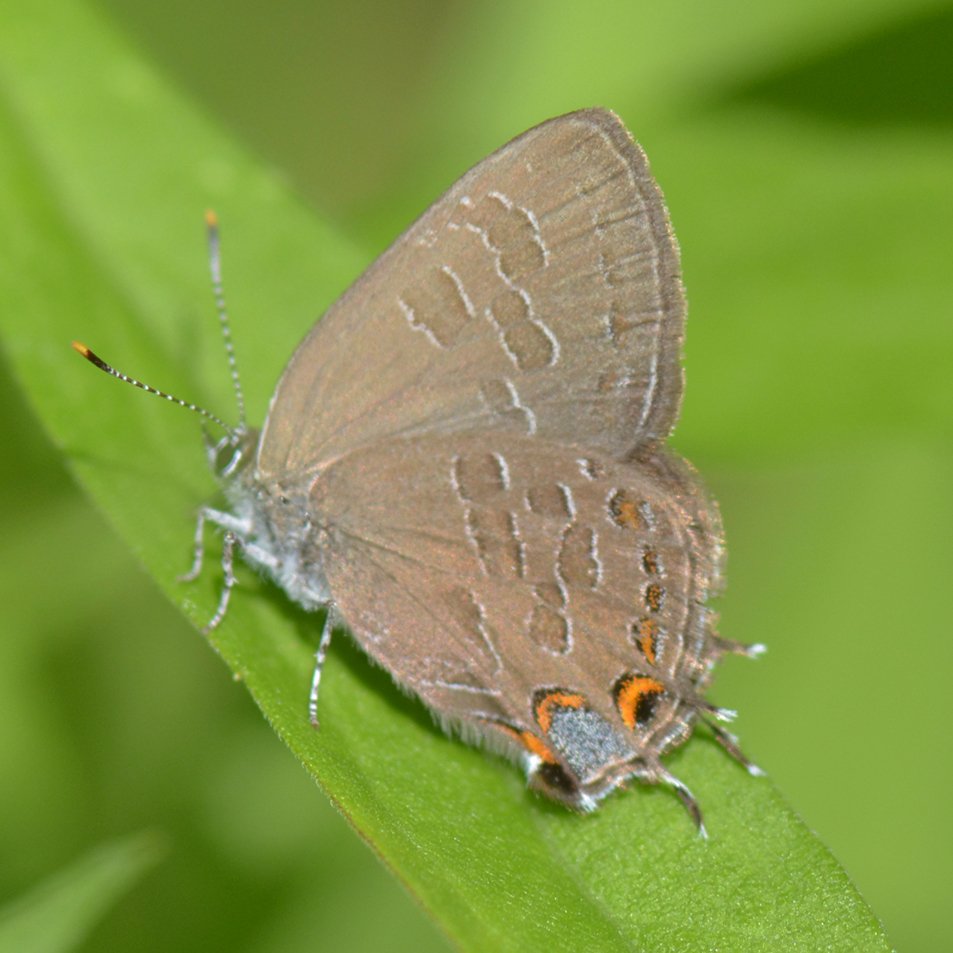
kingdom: Animalia
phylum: Arthropoda
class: Insecta
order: Lepidoptera
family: Lycaenidae
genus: Satyrium
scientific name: Satyrium liparops
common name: Striped Hairstreak
